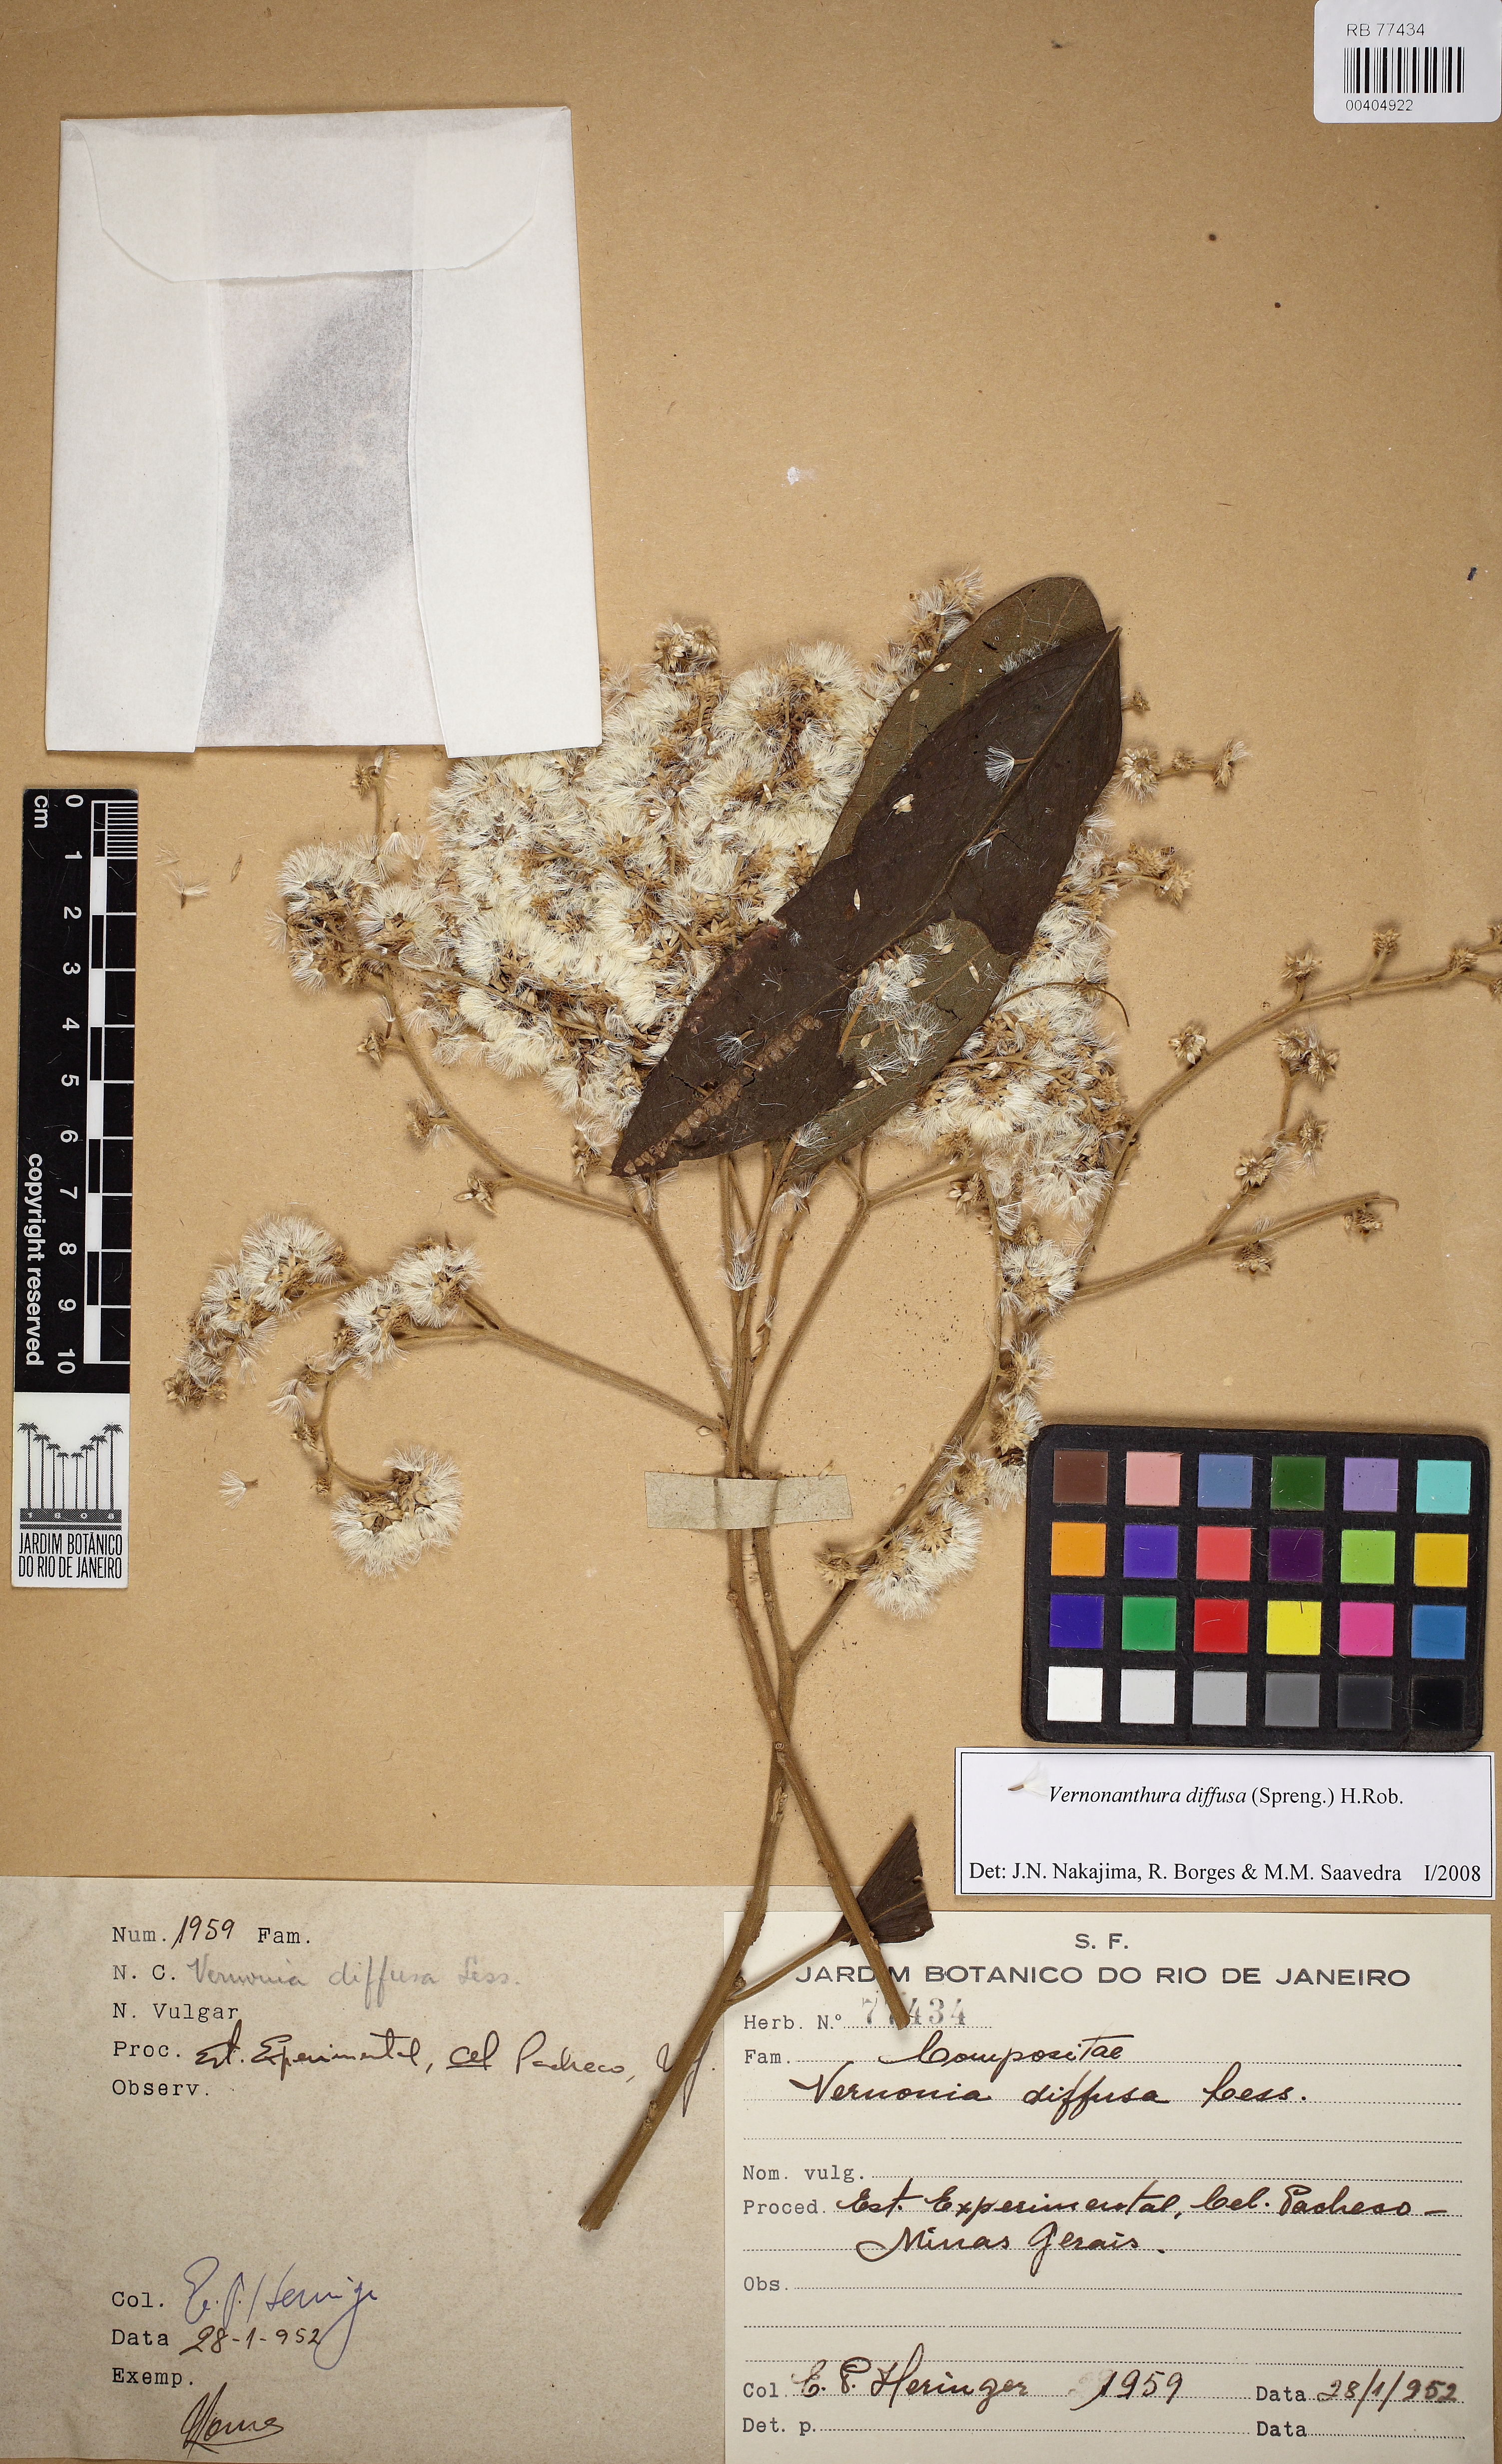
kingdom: Plantae
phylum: Tracheophyta
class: Magnoliopsida
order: Asterales
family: Asteraceae
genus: Vernonanthura
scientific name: Vernonanthura divaricata
